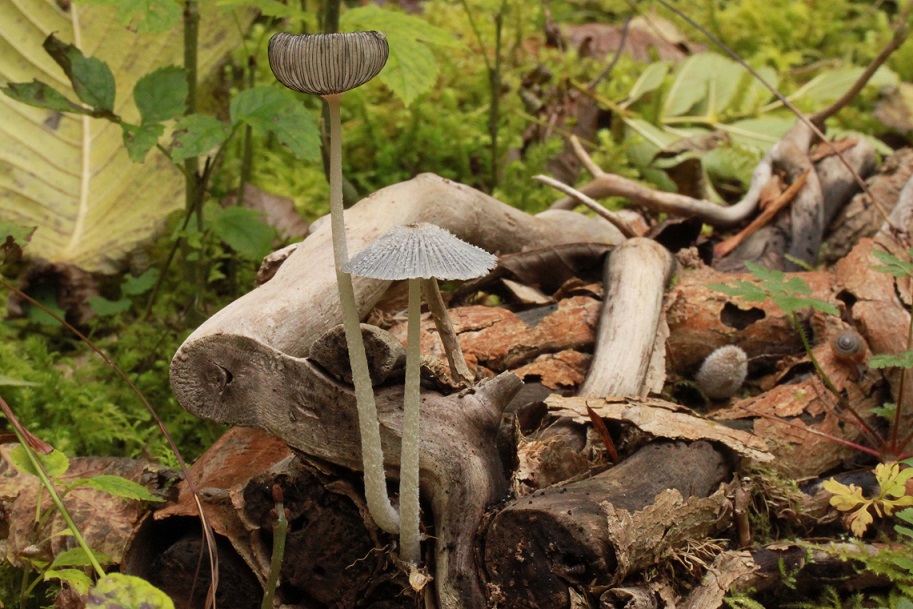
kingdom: Fungi
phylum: Basidiomycota
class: Agaricomycetes
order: Agaricales
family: Psathyrellaceae
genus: Coprinopsis
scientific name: Coprinopsis lagopus
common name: dunstokket blækhat
